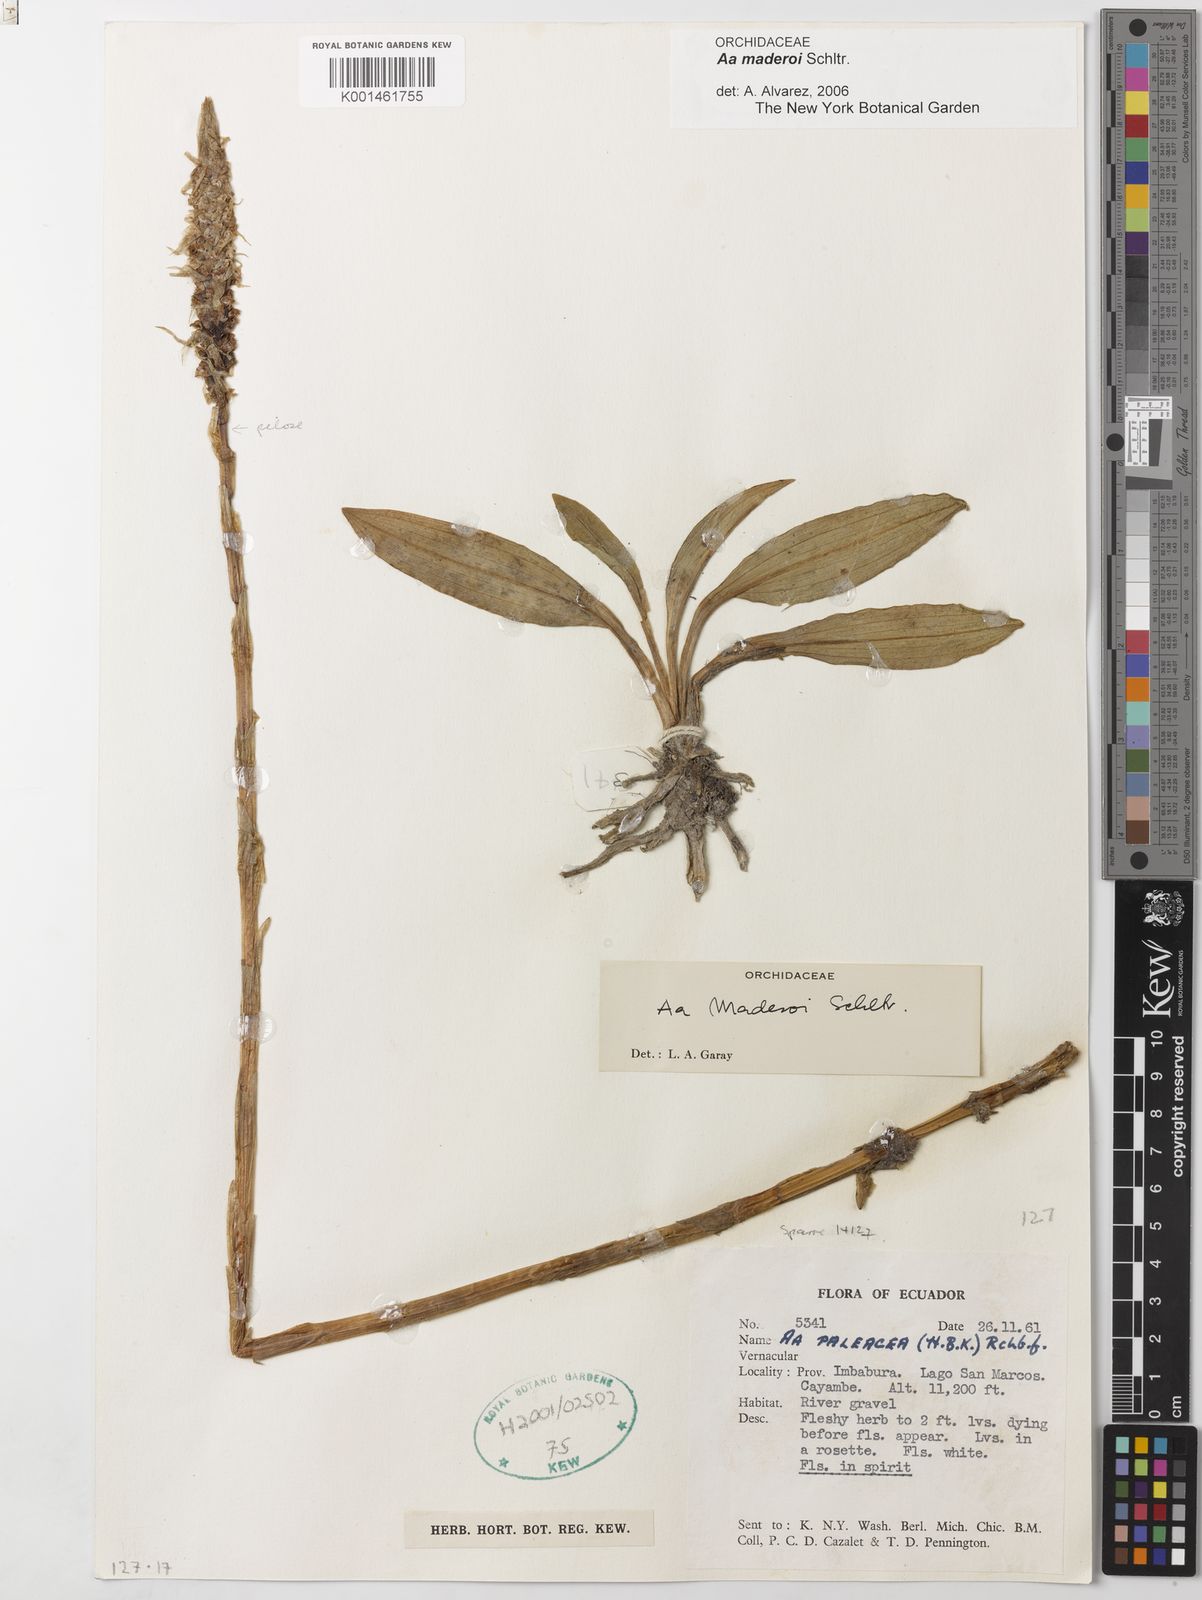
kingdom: Plantae
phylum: Tracheophyta
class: Liliopsida
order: Asparagales
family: Orchidaceae
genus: Aa
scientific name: Aa maderoi
